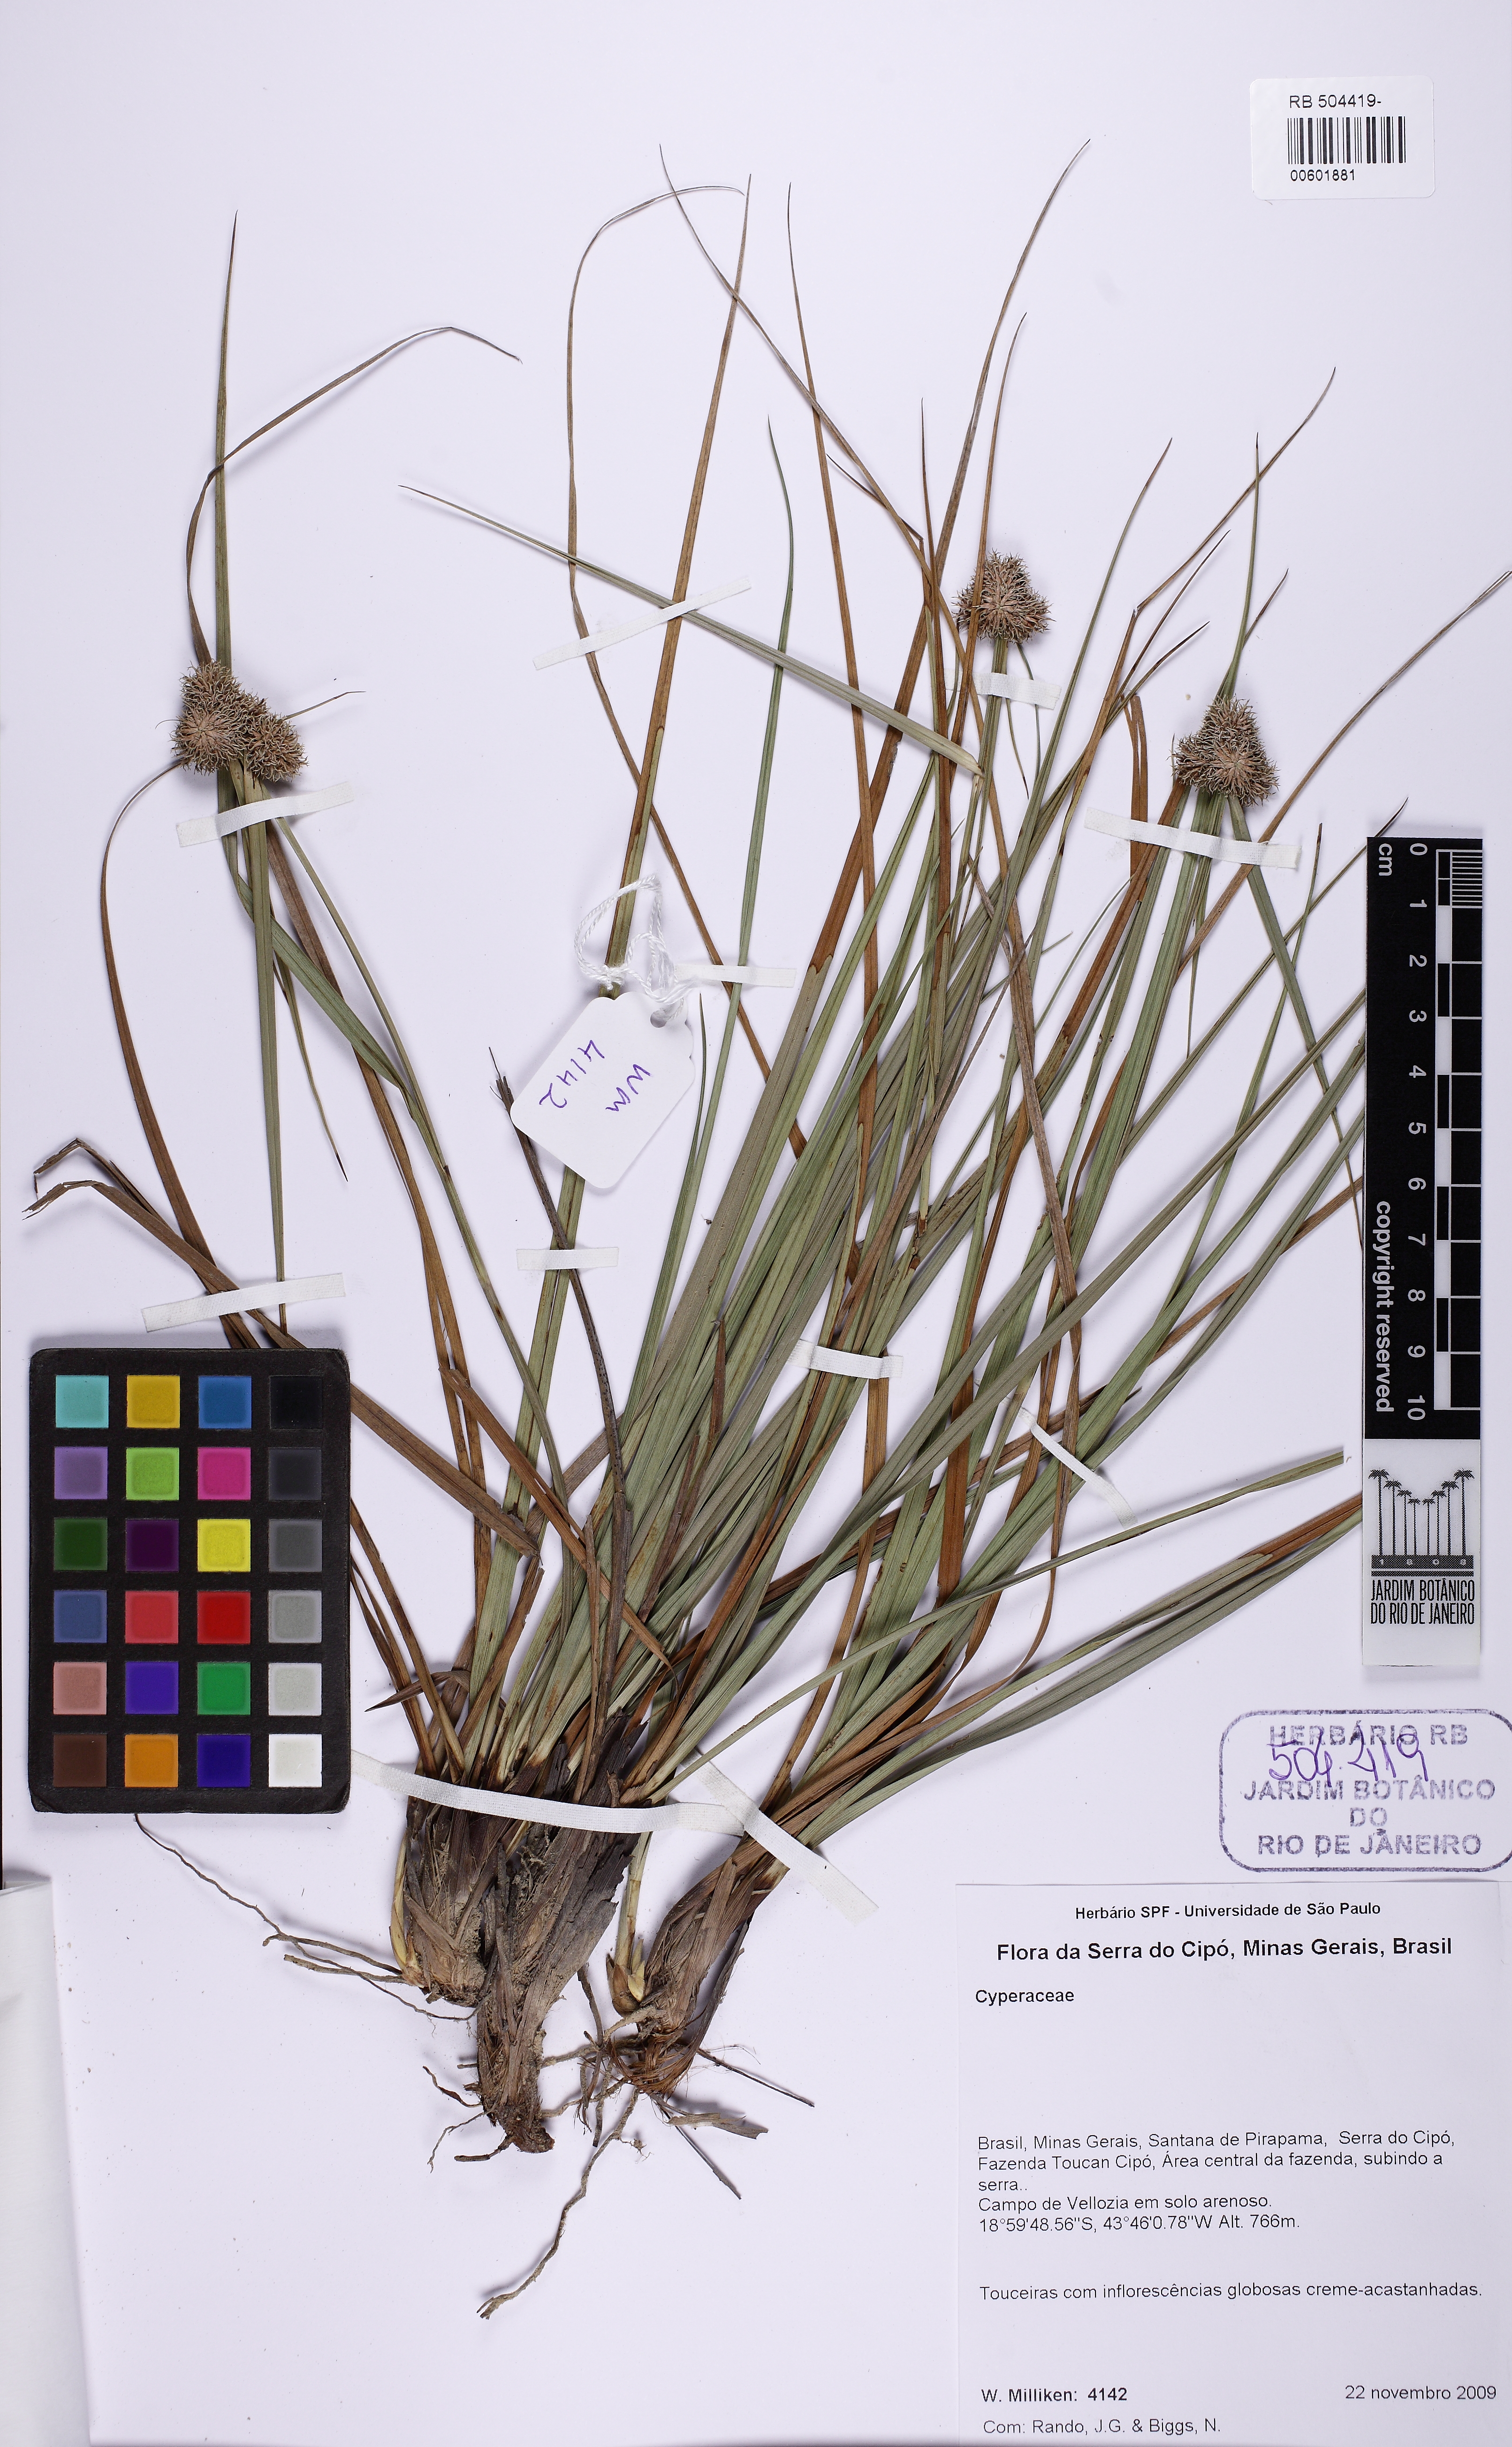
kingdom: Plantae
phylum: Tracheophyta
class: Liliopsida
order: Poales
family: Cyperaceae
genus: Rhynchospora
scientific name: Rhynchospora cephalotes
